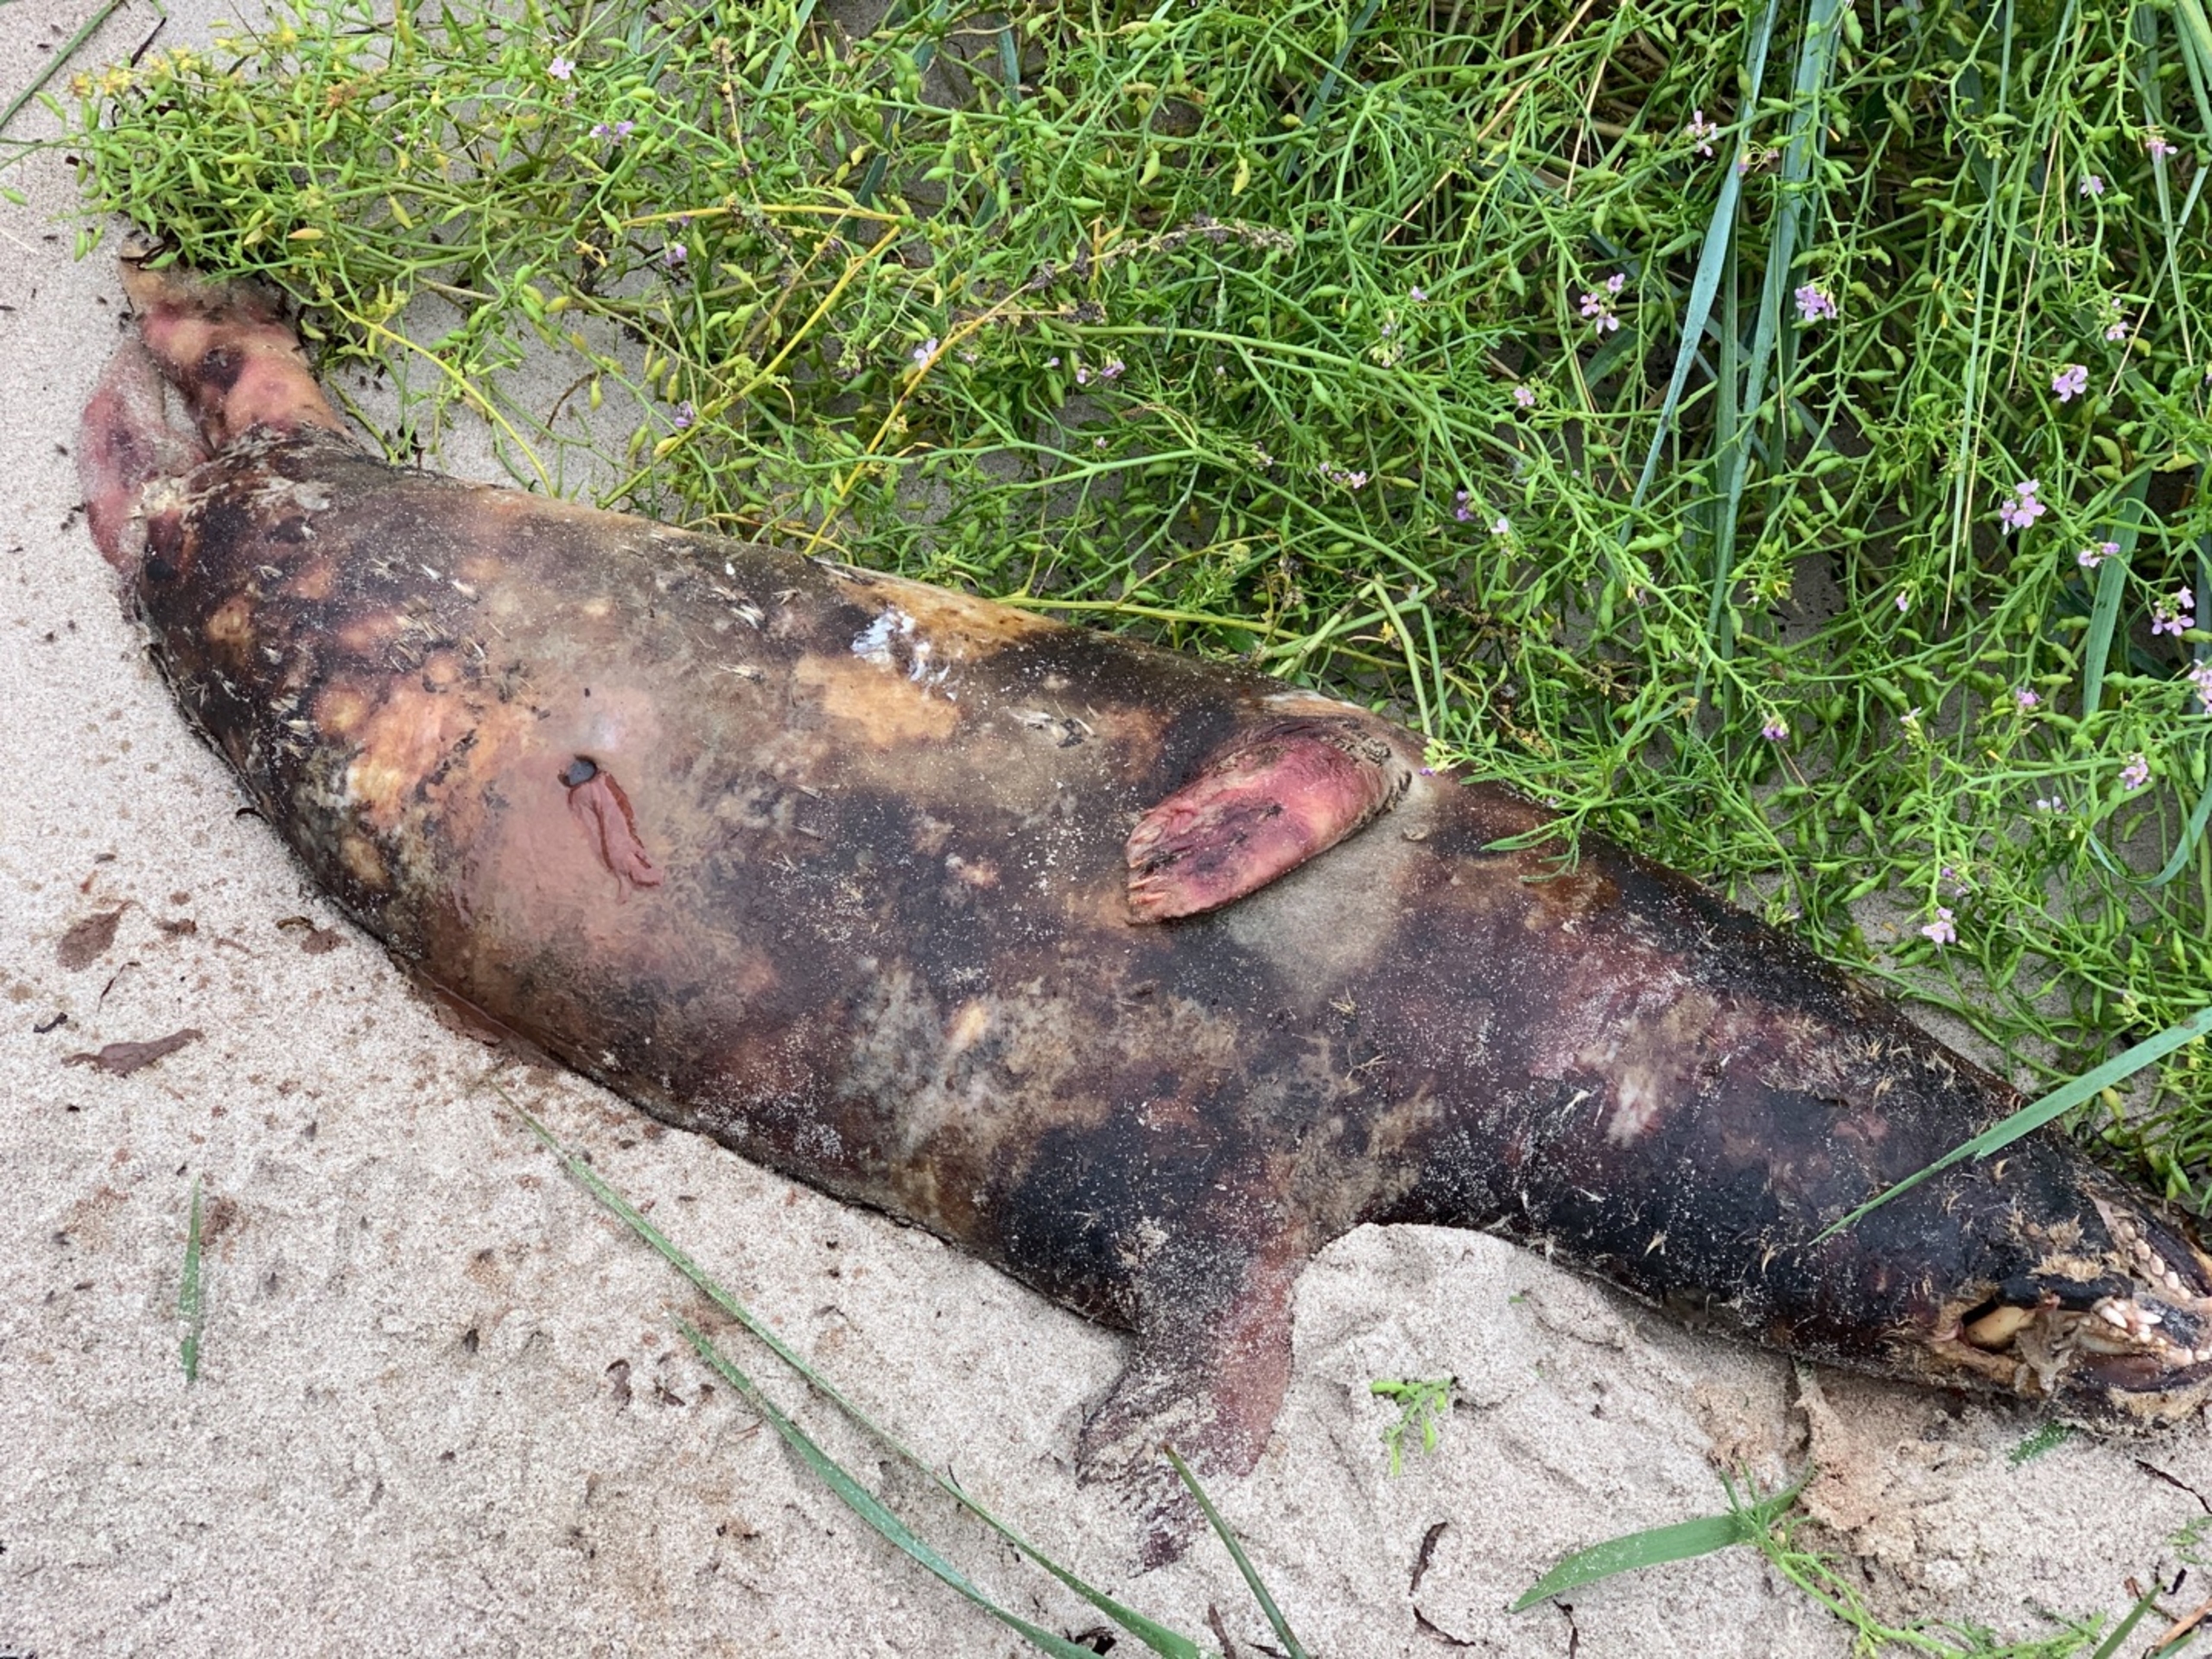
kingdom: Animalia
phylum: Chordata
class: Mammalia
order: Carnivora
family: Phocidae
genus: Halichoerus
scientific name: Halichoerus grypus
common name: Gråsæl
